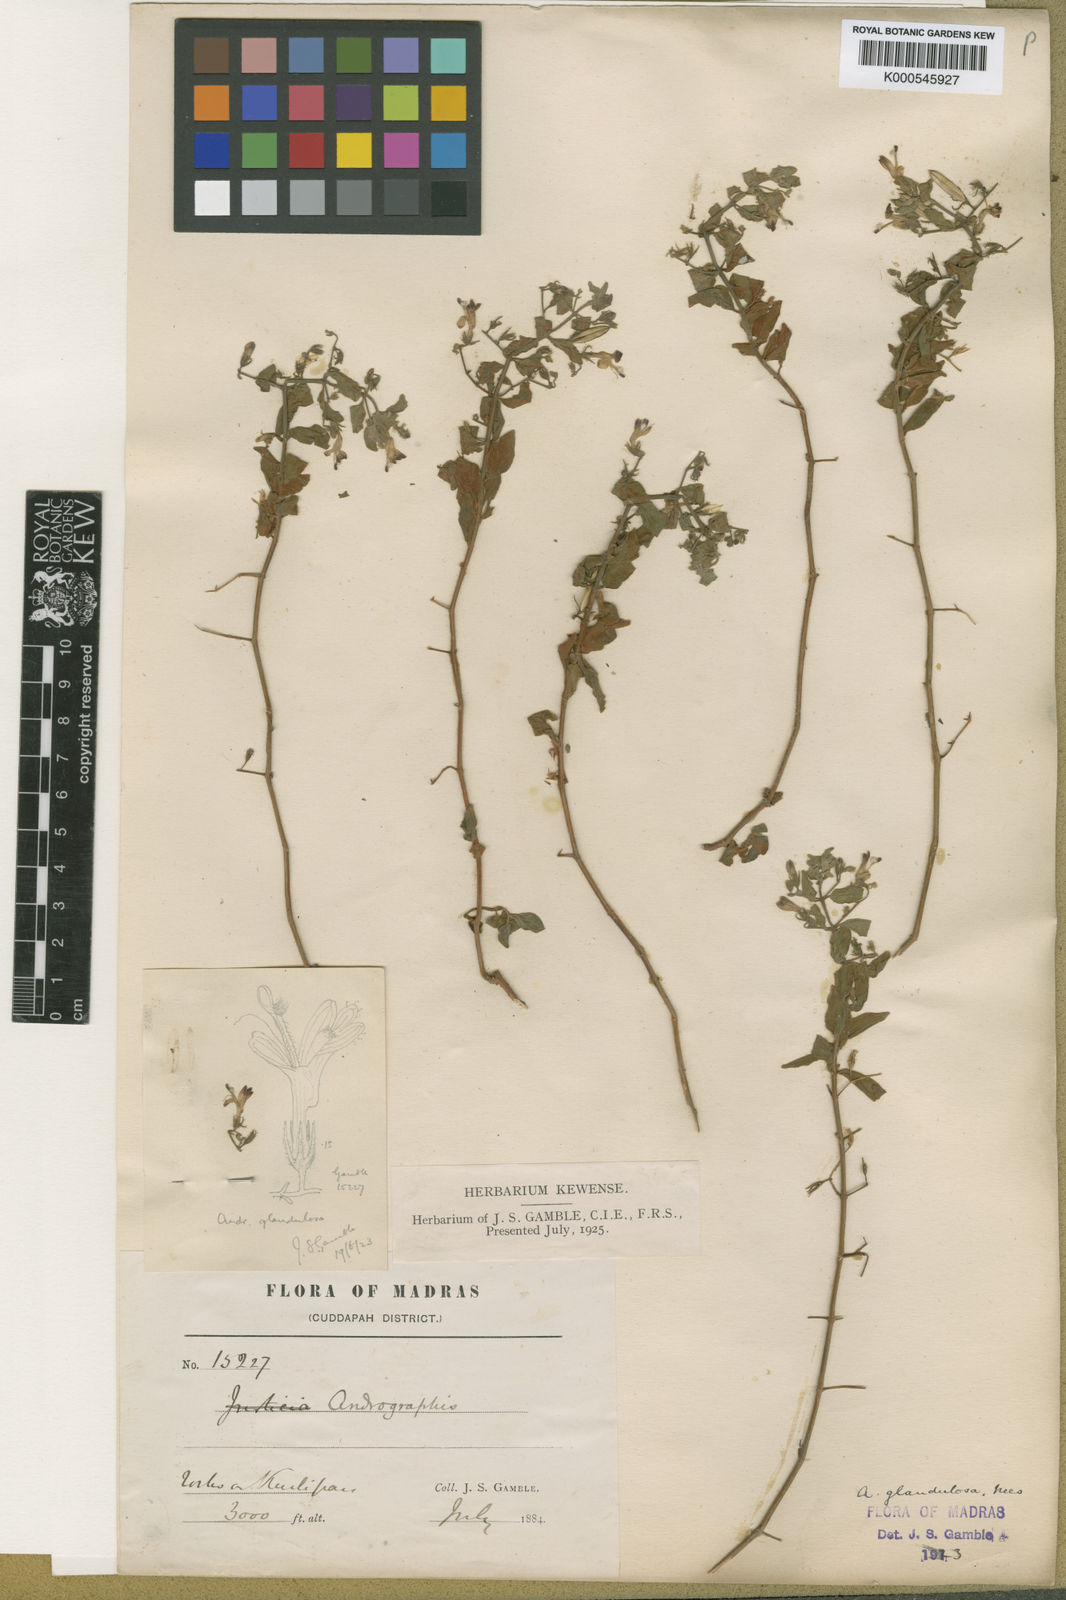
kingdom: Plantae
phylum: Tracheophyta
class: Magnoliopsida
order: Lamiales
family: Acanthaceae
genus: Andrographis
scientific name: Andrographis glandulosa
